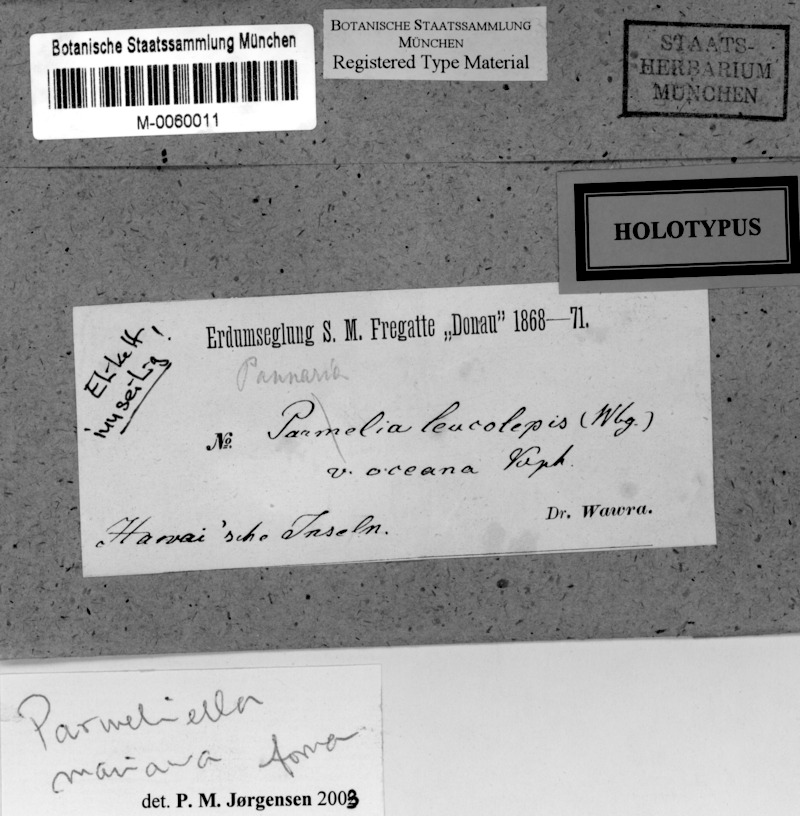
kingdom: Fungi
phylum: Ascomycota
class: Lecanoromycetes
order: Peltigerales
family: Pannariaceae
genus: Lepidocollema
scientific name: Lepidocollema marianum
